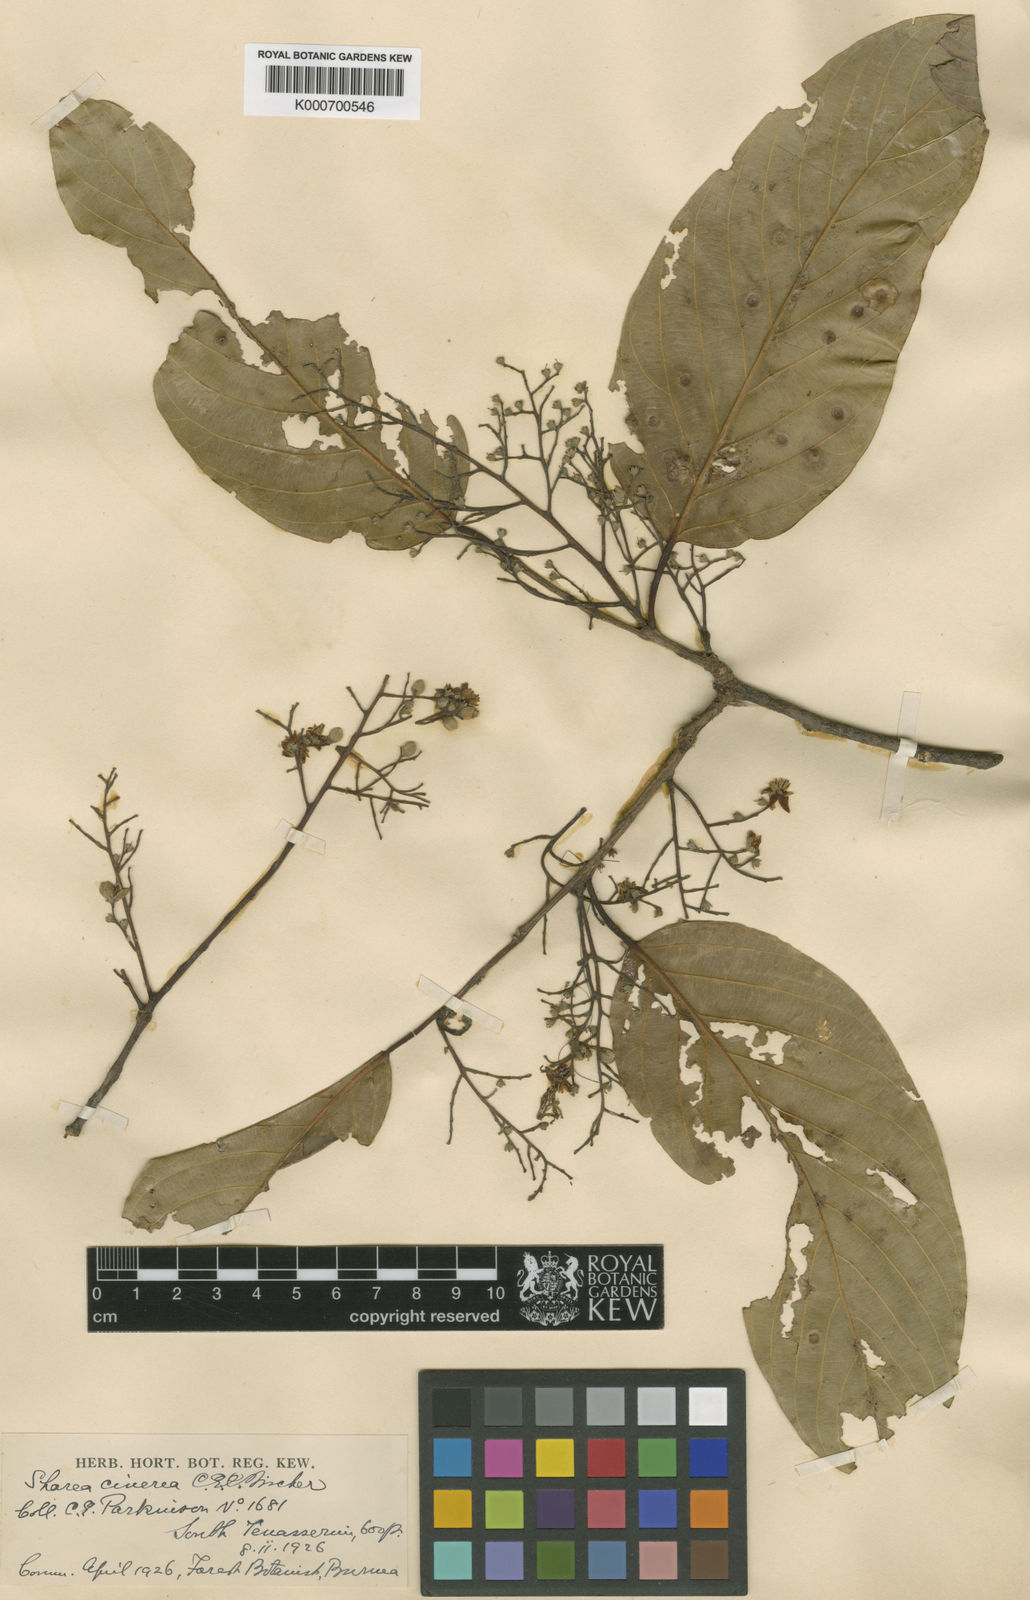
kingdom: Plantae
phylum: Tracheophyta
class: Magnoliopsida
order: Malvales
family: Dipterocarpaceae
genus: Parashorea
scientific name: Parashorea stellata
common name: Thinkadu
